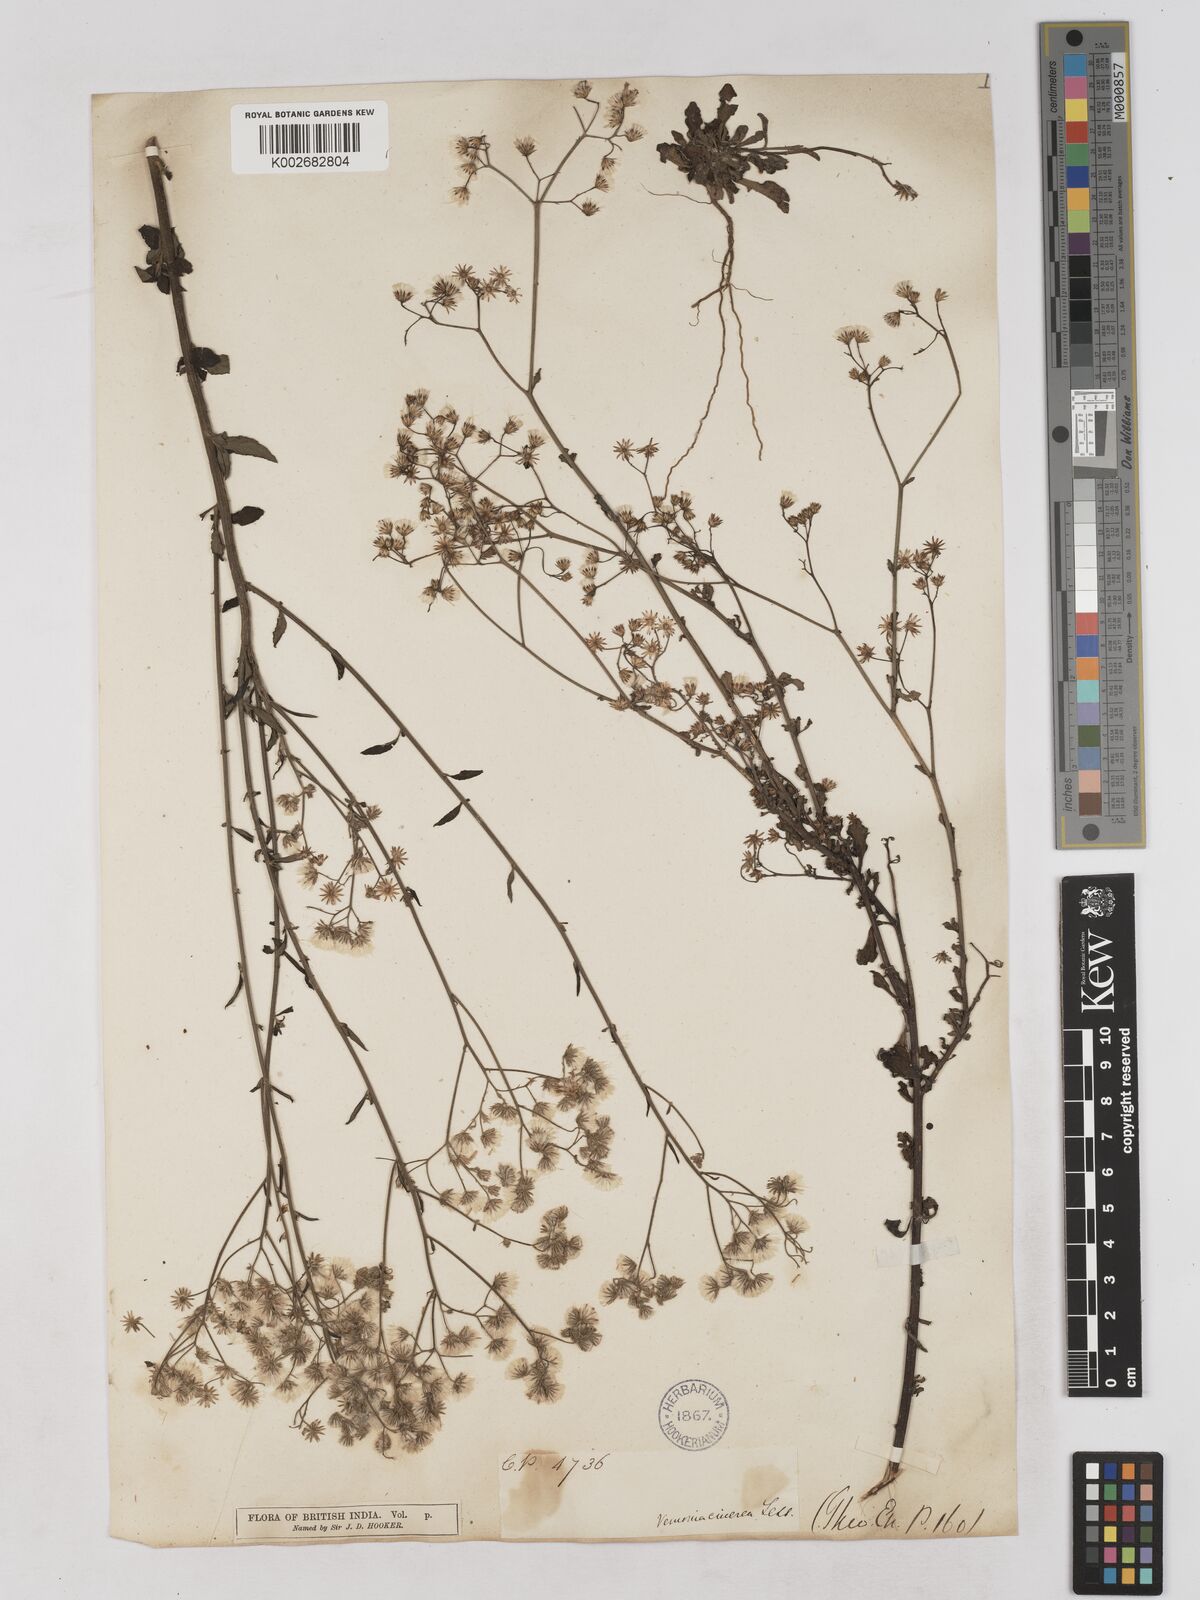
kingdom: Plantae
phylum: Tracheophyta
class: Magnoliopsida
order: Asterales
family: Asteraceae
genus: Cyanthillium
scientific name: Cyanthillium cinereum
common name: Little ironweed
